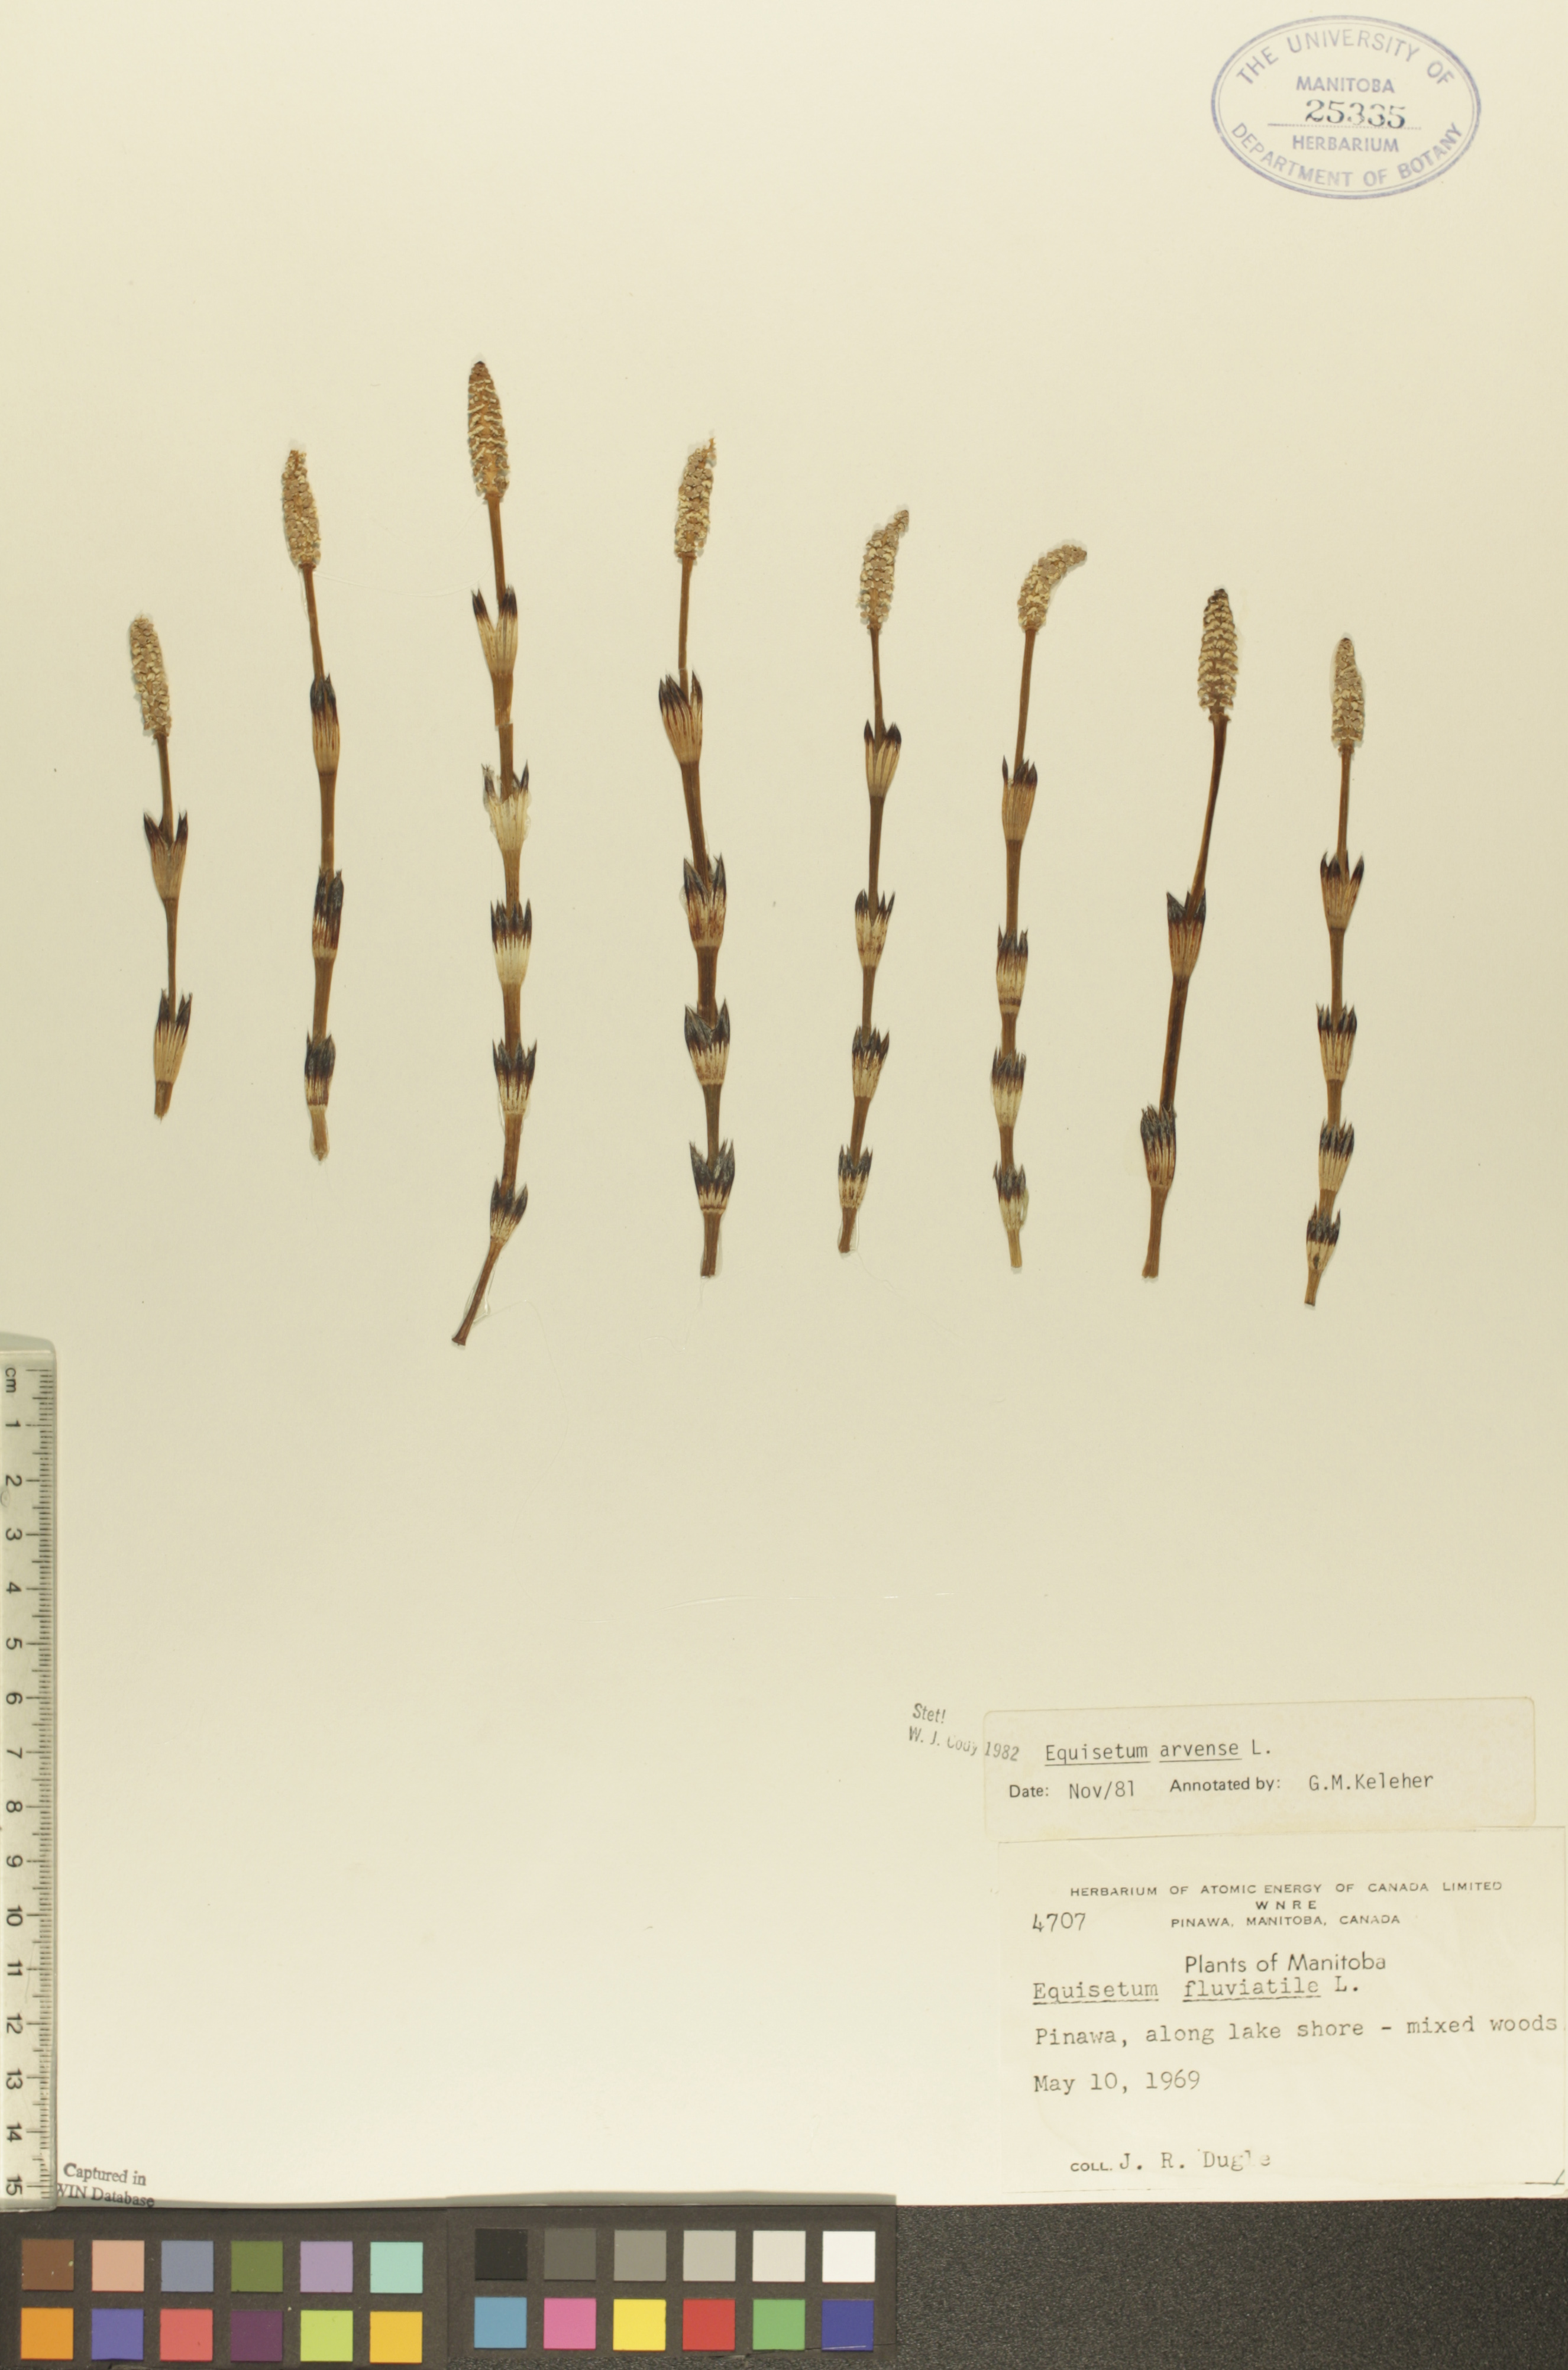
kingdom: Plantae
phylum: Tracheophyta
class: Polypodiopsida
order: Equisetales
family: Equisetaceae
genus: Equisetum
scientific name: Equisetum arvense
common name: Field horsetail
